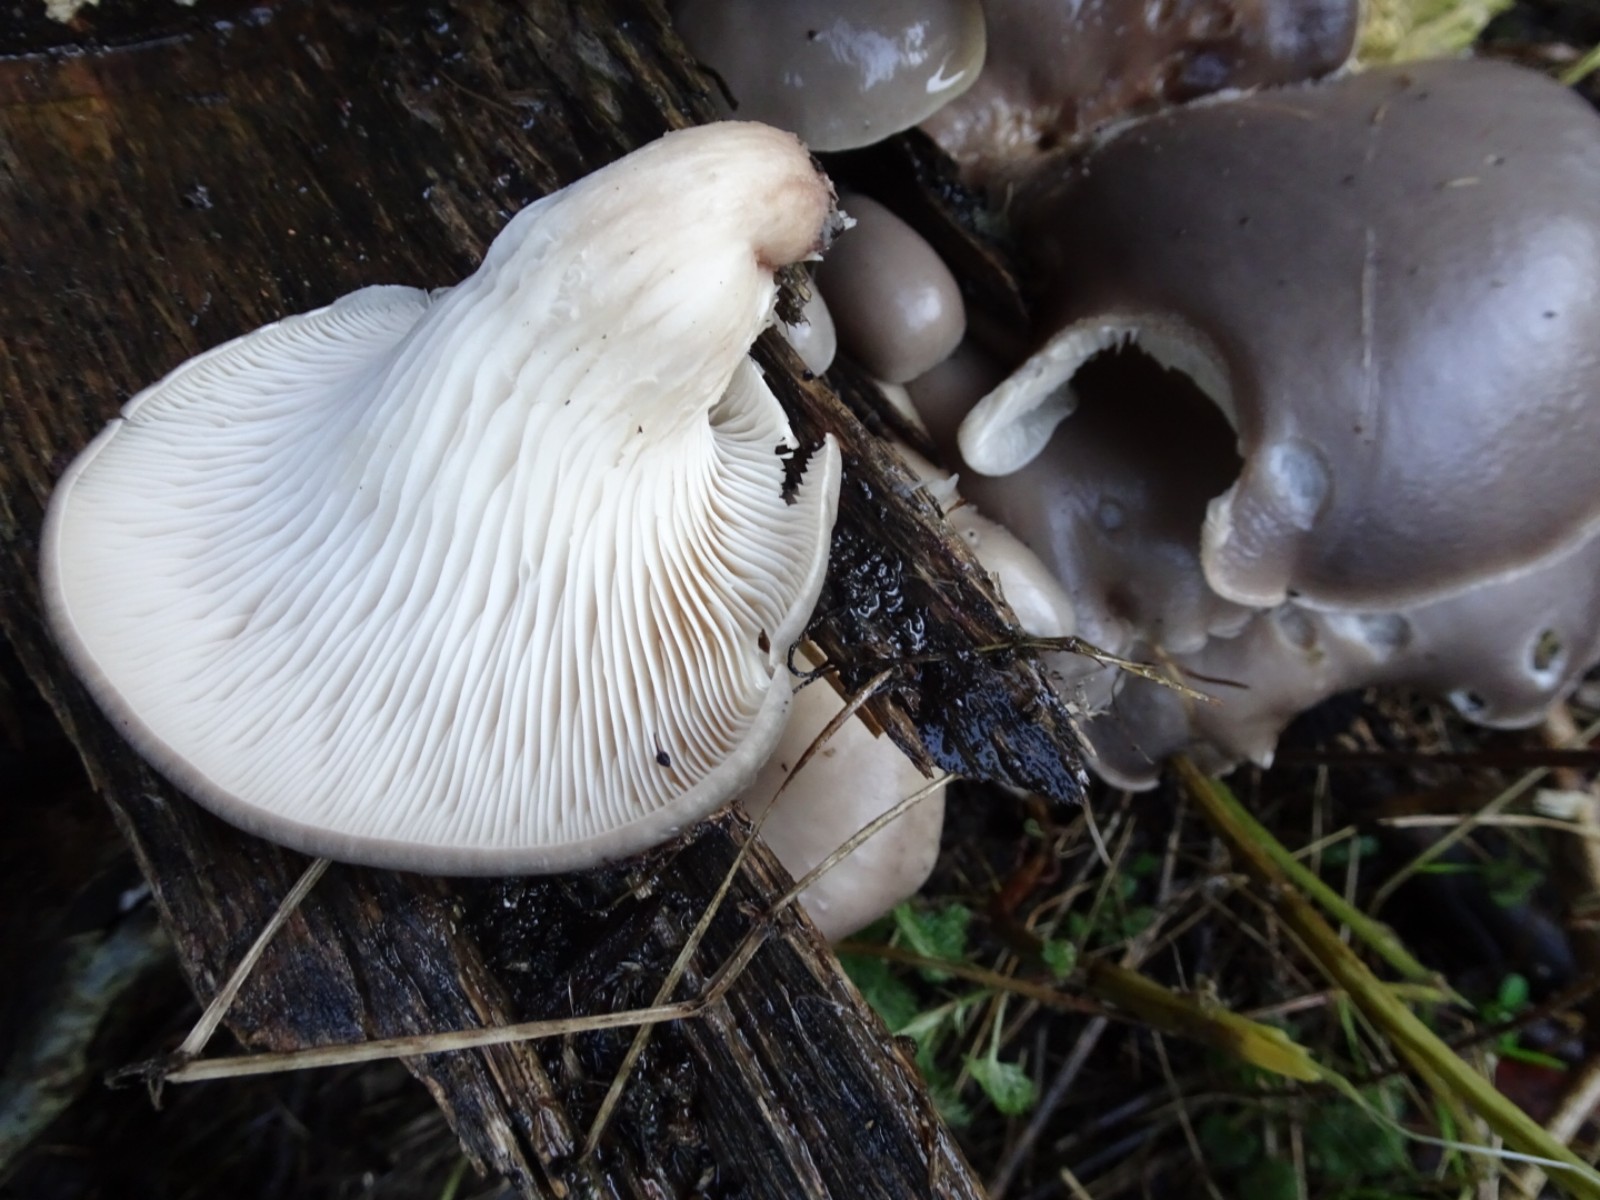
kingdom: Fungi
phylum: Basidiomycota
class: Agaricomycetes
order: Agaricales
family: Pleurotaceae
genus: Pleurotus
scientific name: Pleurotus ostreatus
